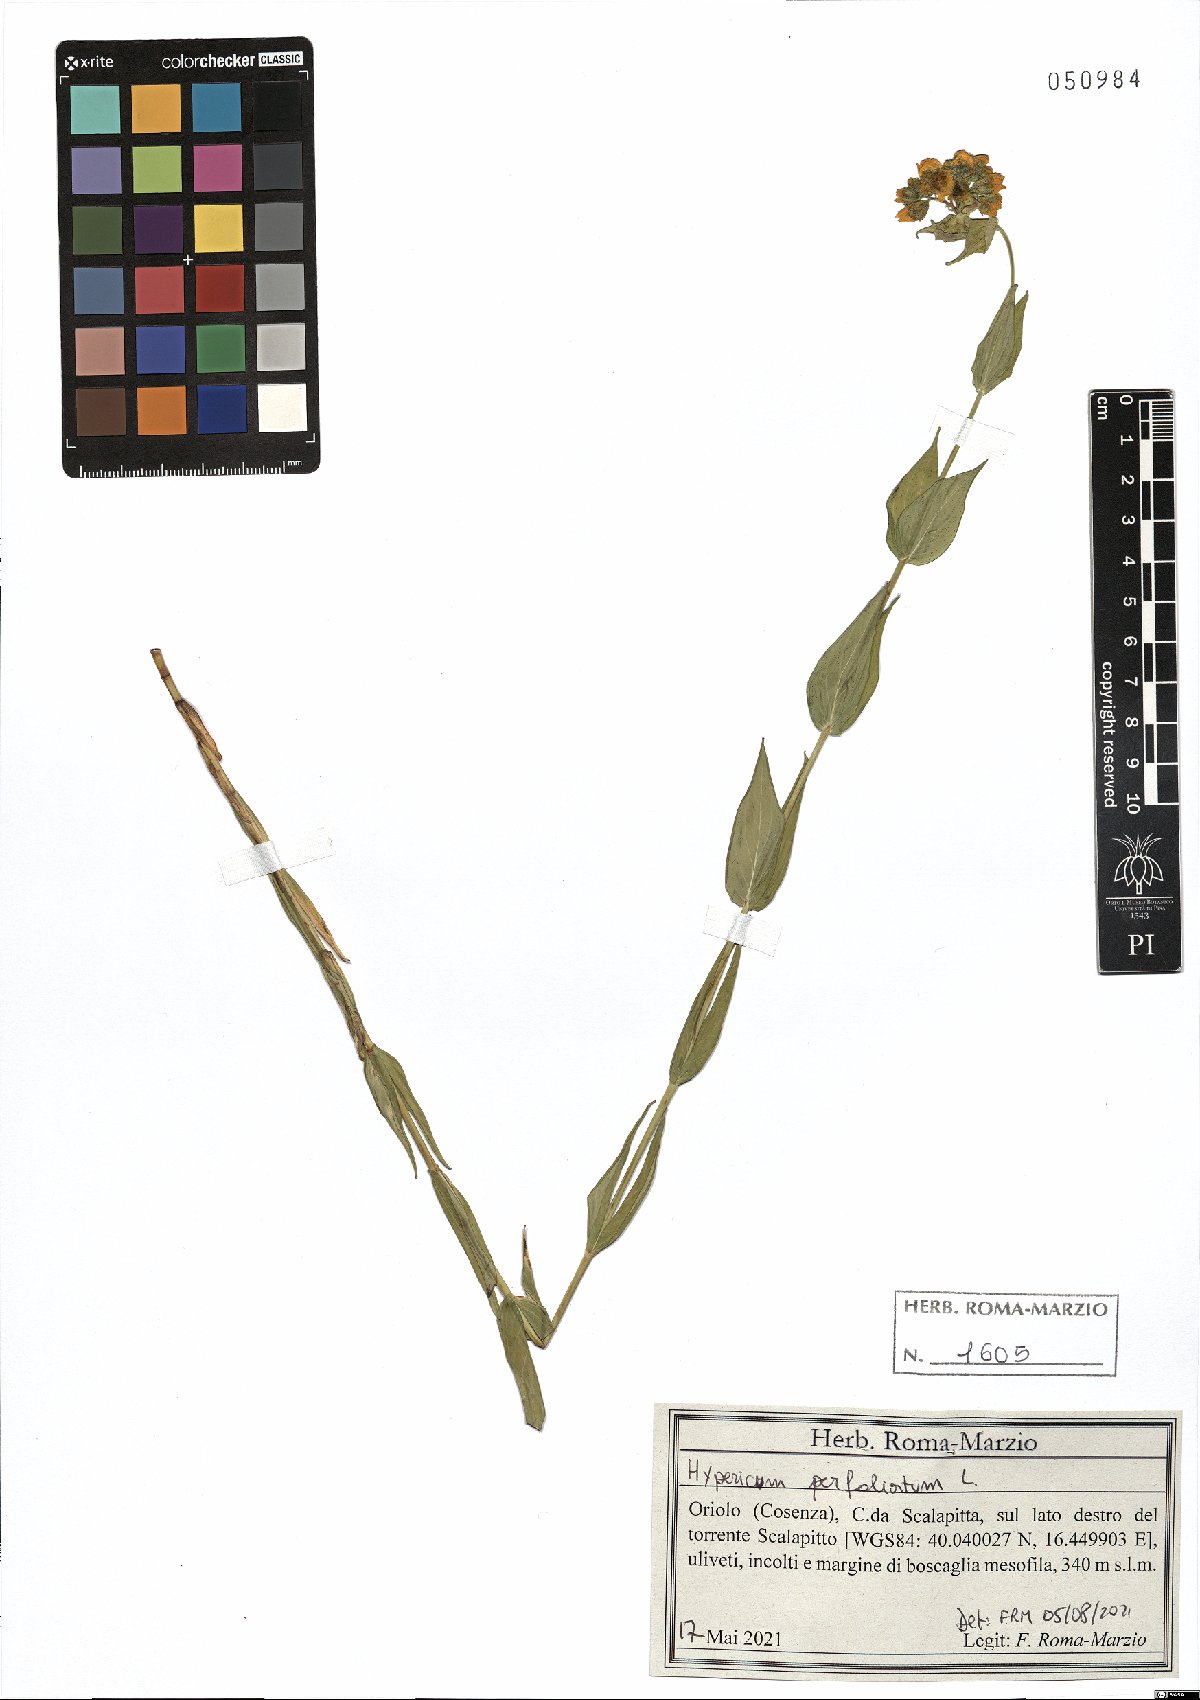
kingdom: Plantae
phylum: Tracheophyta
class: Magnoliopsida
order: Malpighiales
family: Hypericaceae
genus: Hypericum
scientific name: Hypericum perfoliatum
